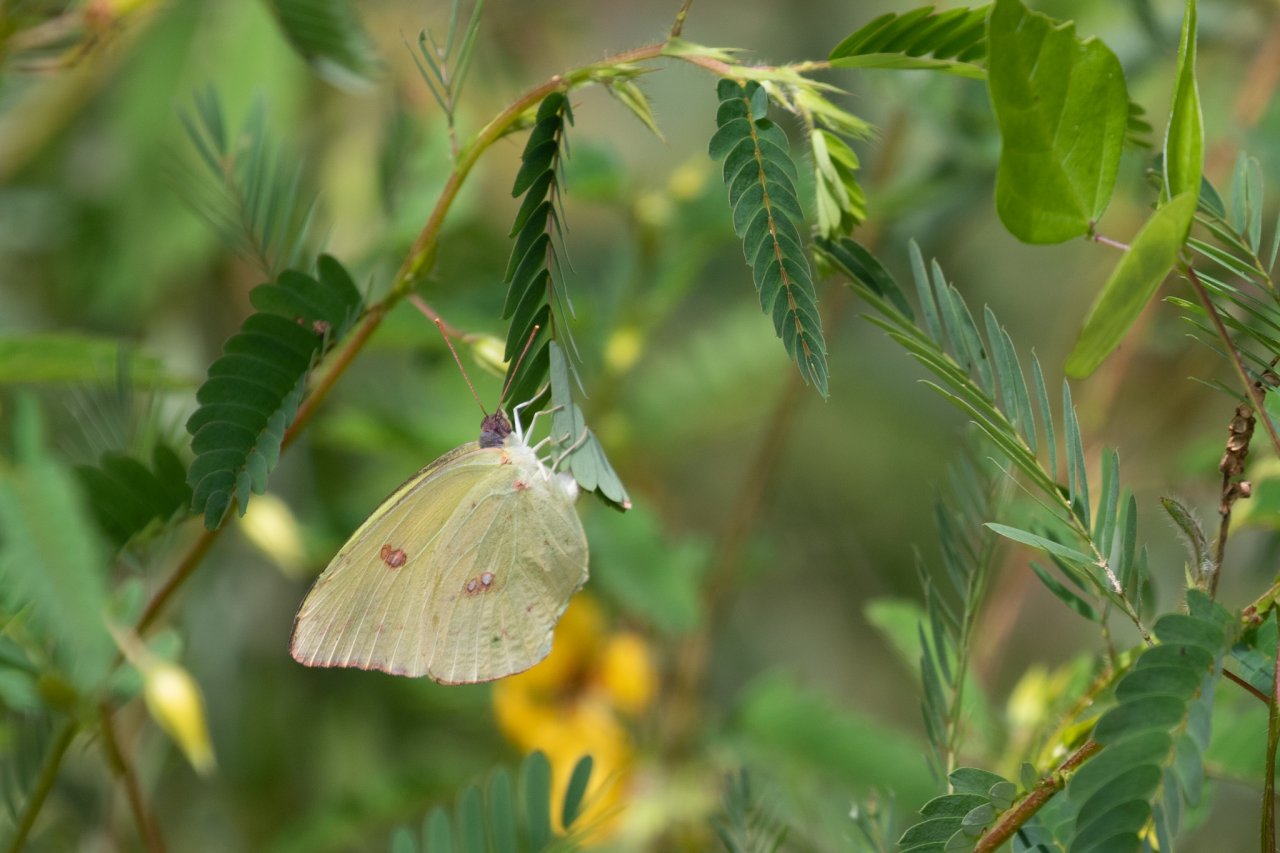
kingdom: Animalia
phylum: Arthropoda
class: Insecta
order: Lepidoptera
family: Pieridae
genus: Phoebis
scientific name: Phoebis sennae
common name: Cloudless Sulphur
